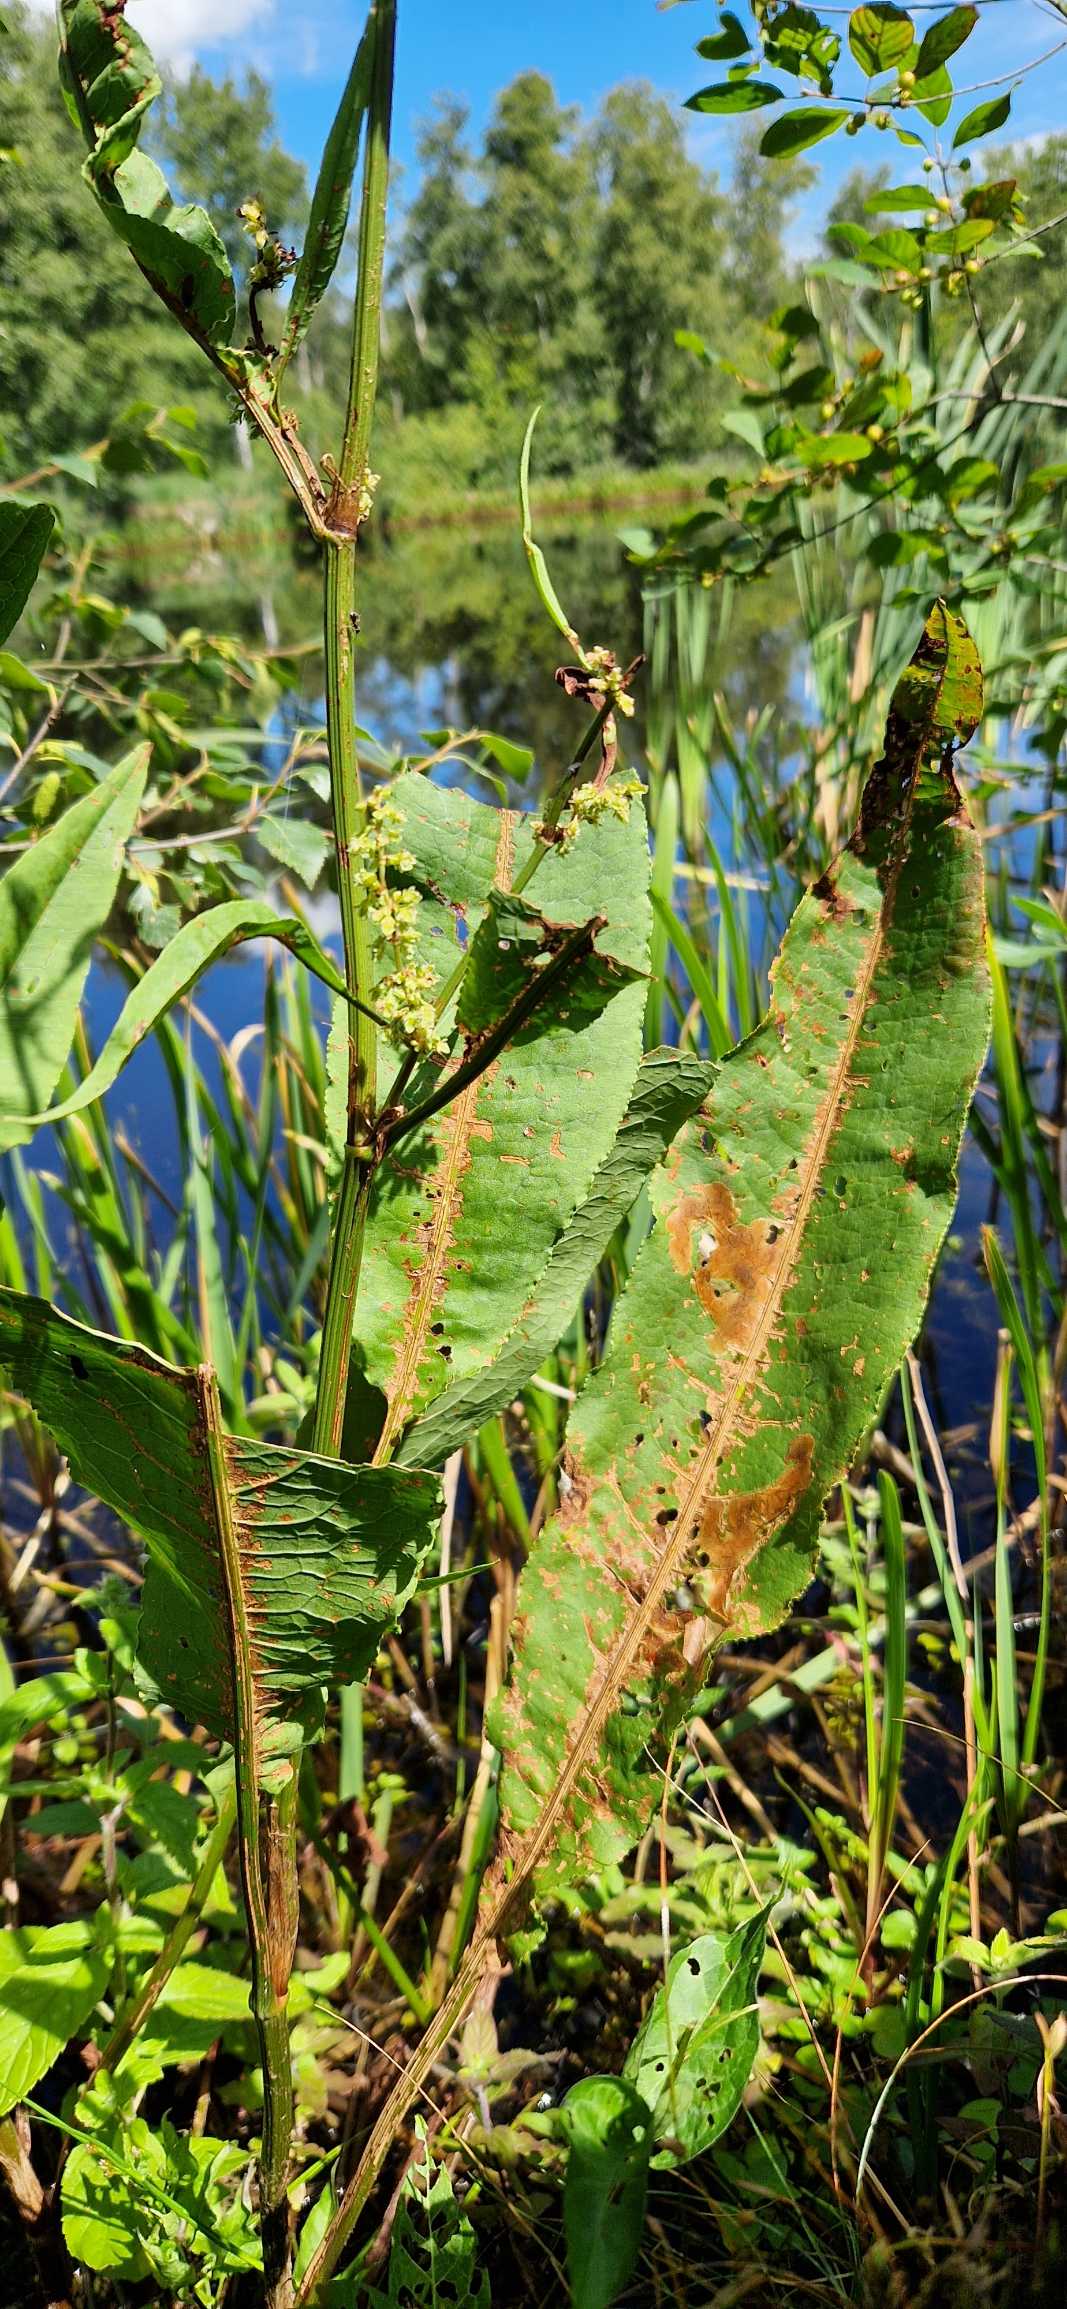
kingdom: Plantae
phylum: Tracheophyta
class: Magnoliopsida
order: Caryophyllales
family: Polygonaceae
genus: Rumex
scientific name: Rumex hydrolapathum
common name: Vand-skræppe
